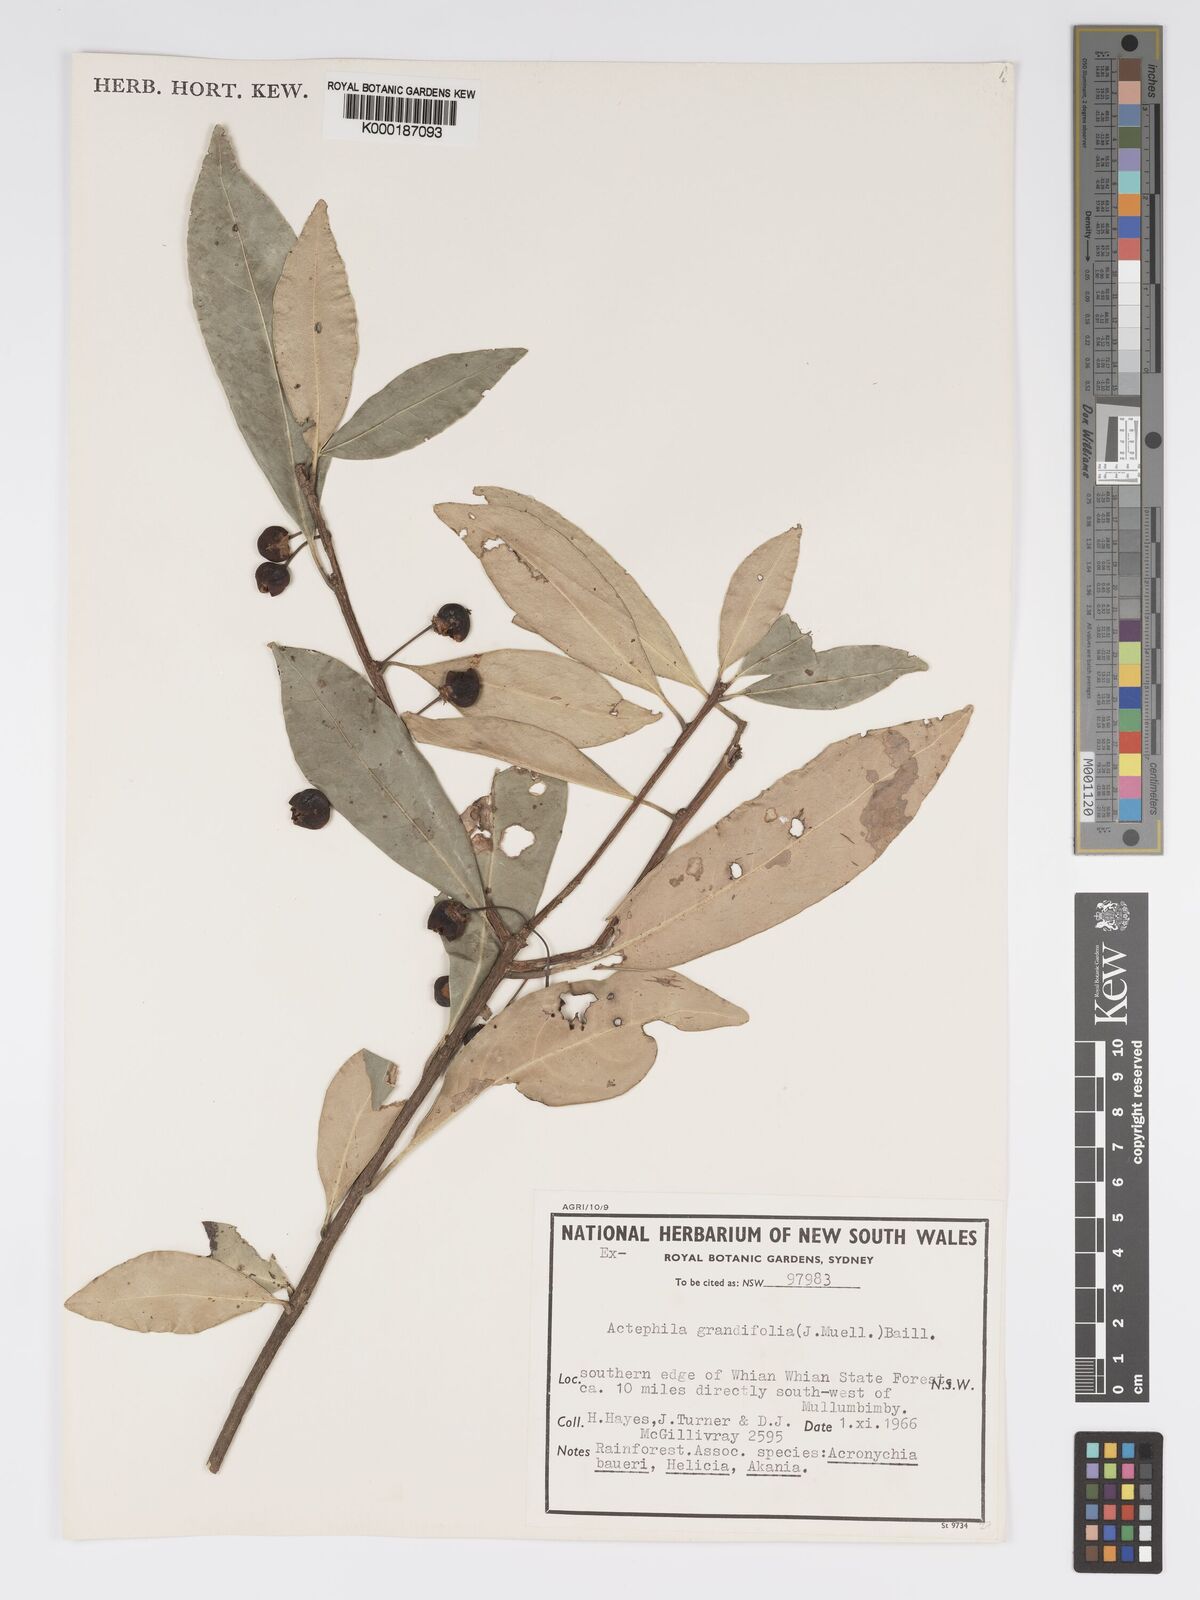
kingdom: Plantae
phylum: Tracheophyta
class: Magnoliopsida
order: Malpighiales
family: Phyllanthaceae
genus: Actephila
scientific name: Actephila lindleyi
